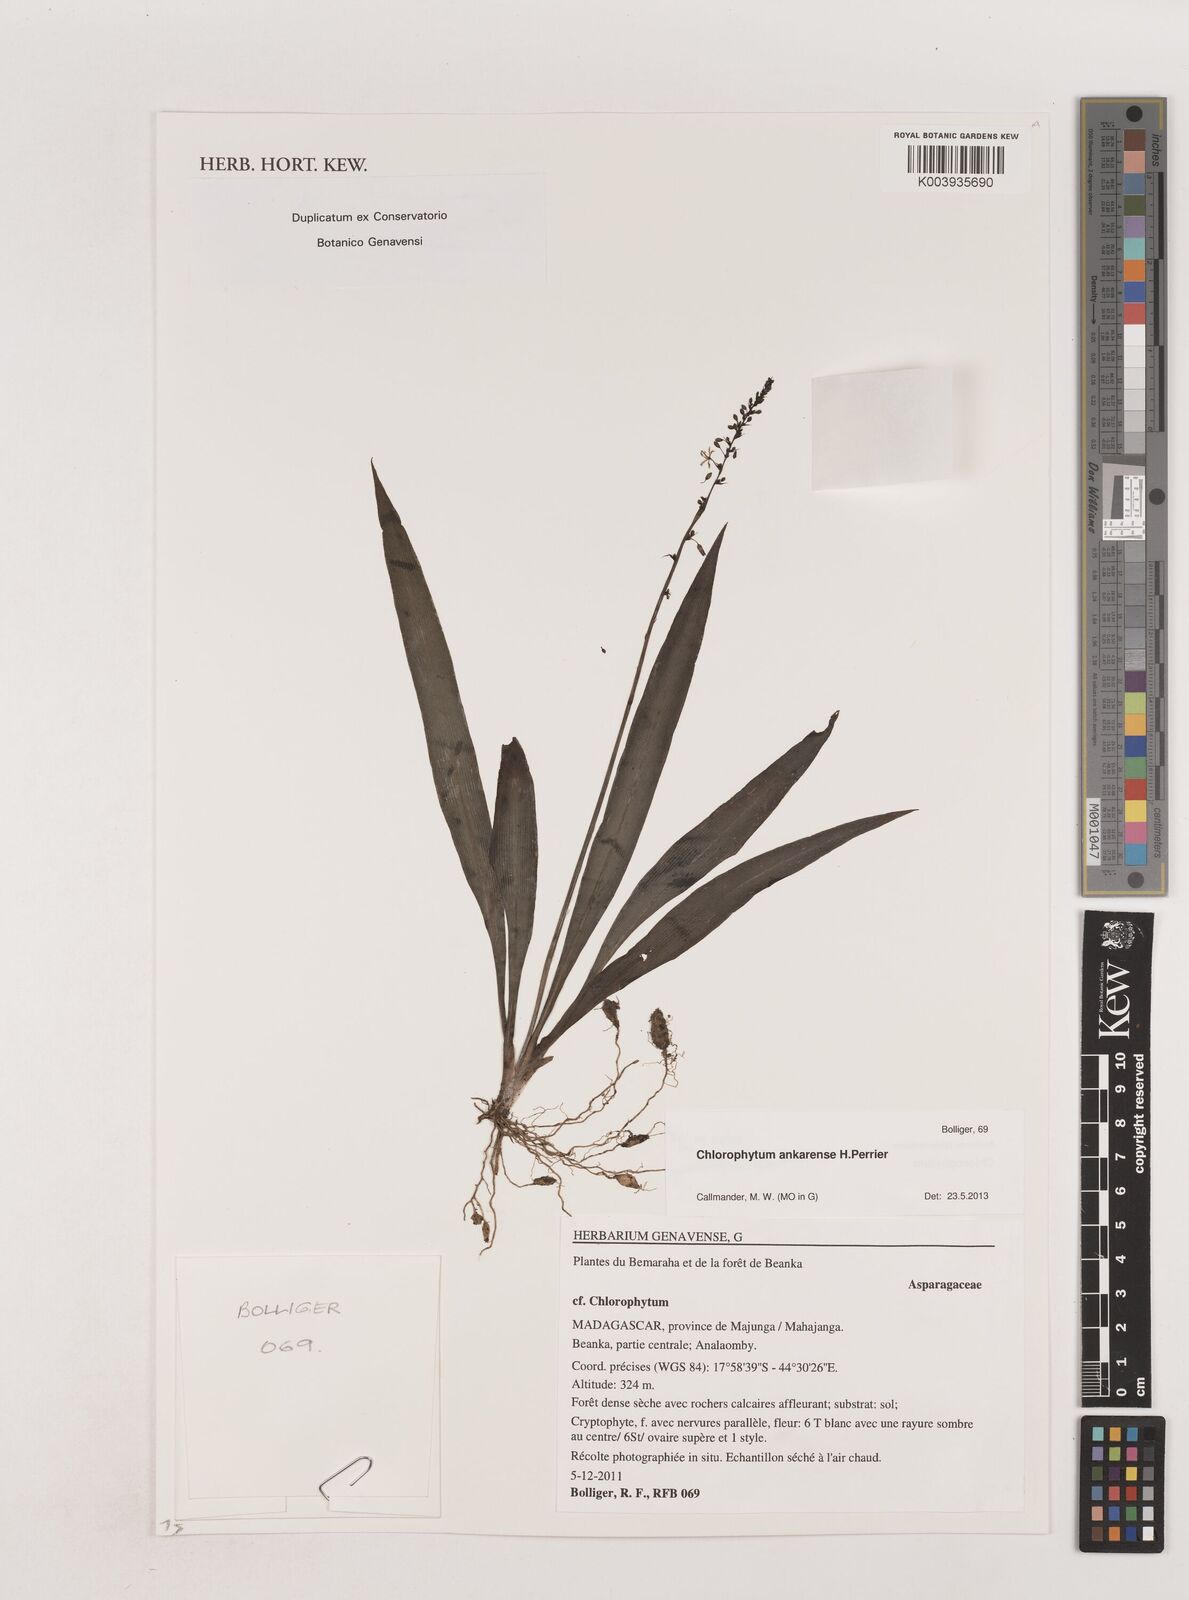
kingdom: Plantae
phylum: Tracheophyta
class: Liliopsida
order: Asparagales
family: Asparagaceae
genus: Chlorophytum
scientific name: Chlorophytum ankarense
